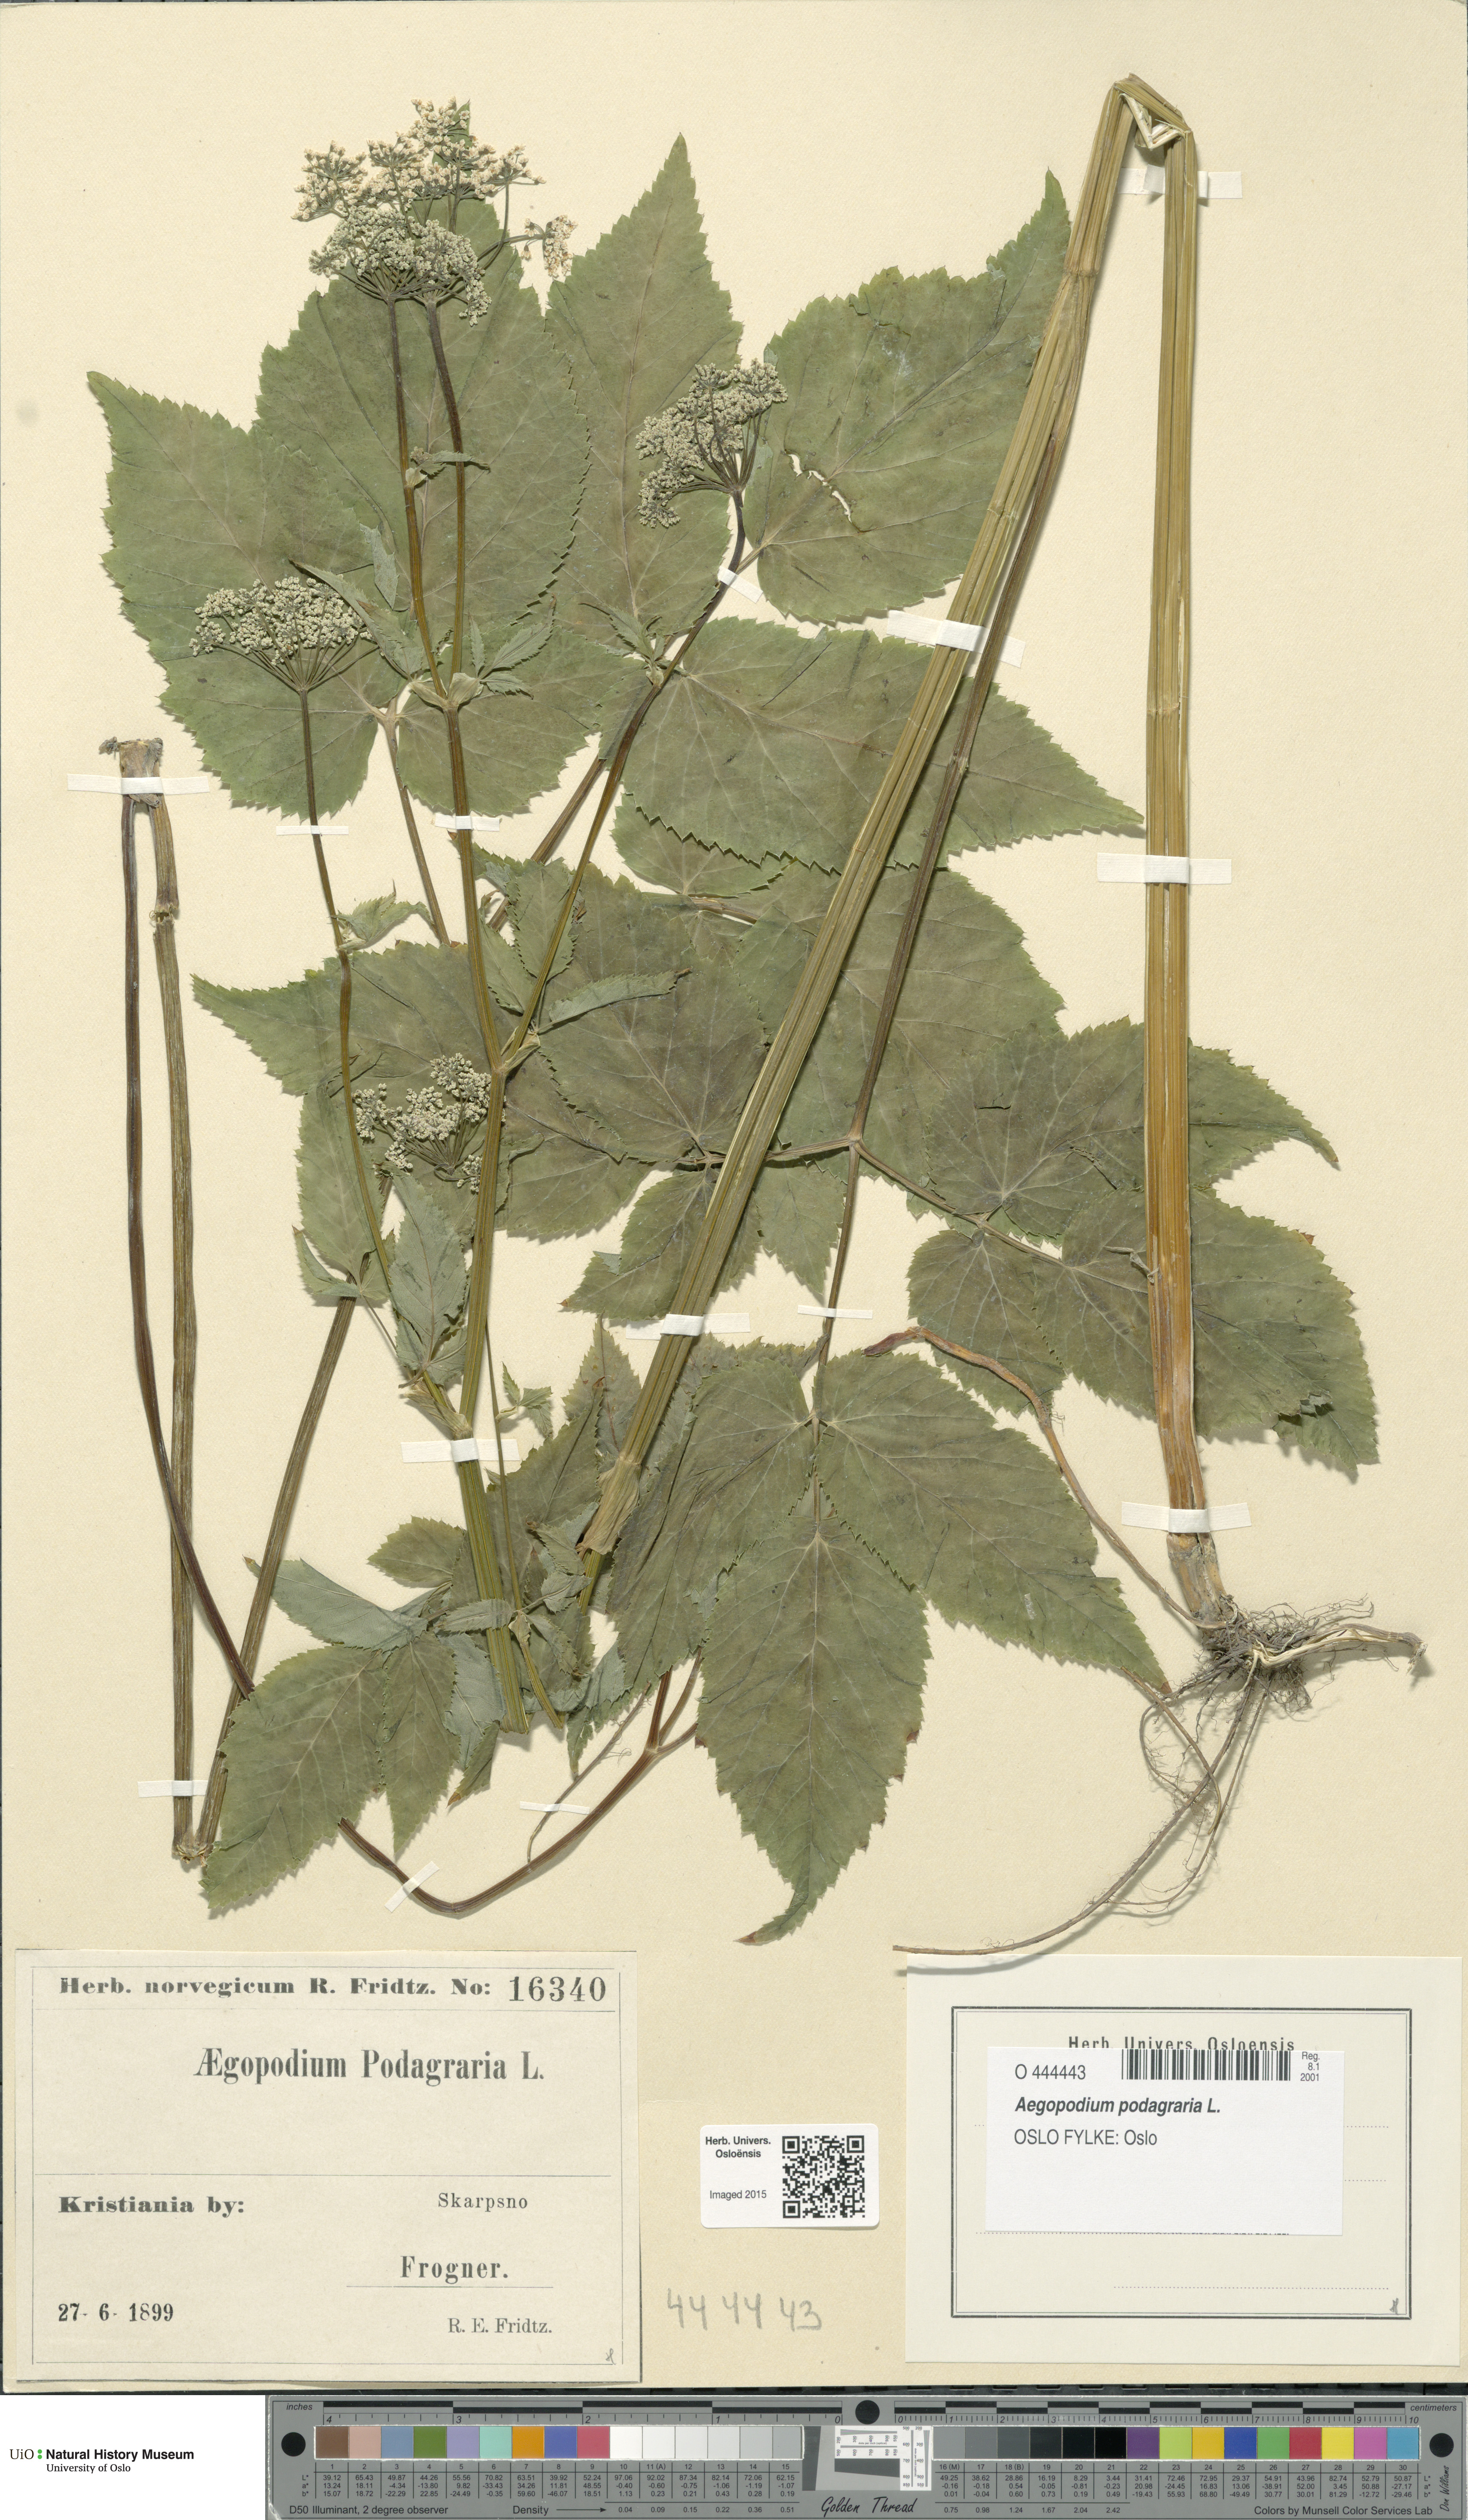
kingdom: Plantae
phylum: Tracheophyta
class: Magnoliopsida
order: Apiales
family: Apiaceae
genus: Aegopodium
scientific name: Aegopodium podagraria
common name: Ground-elder
